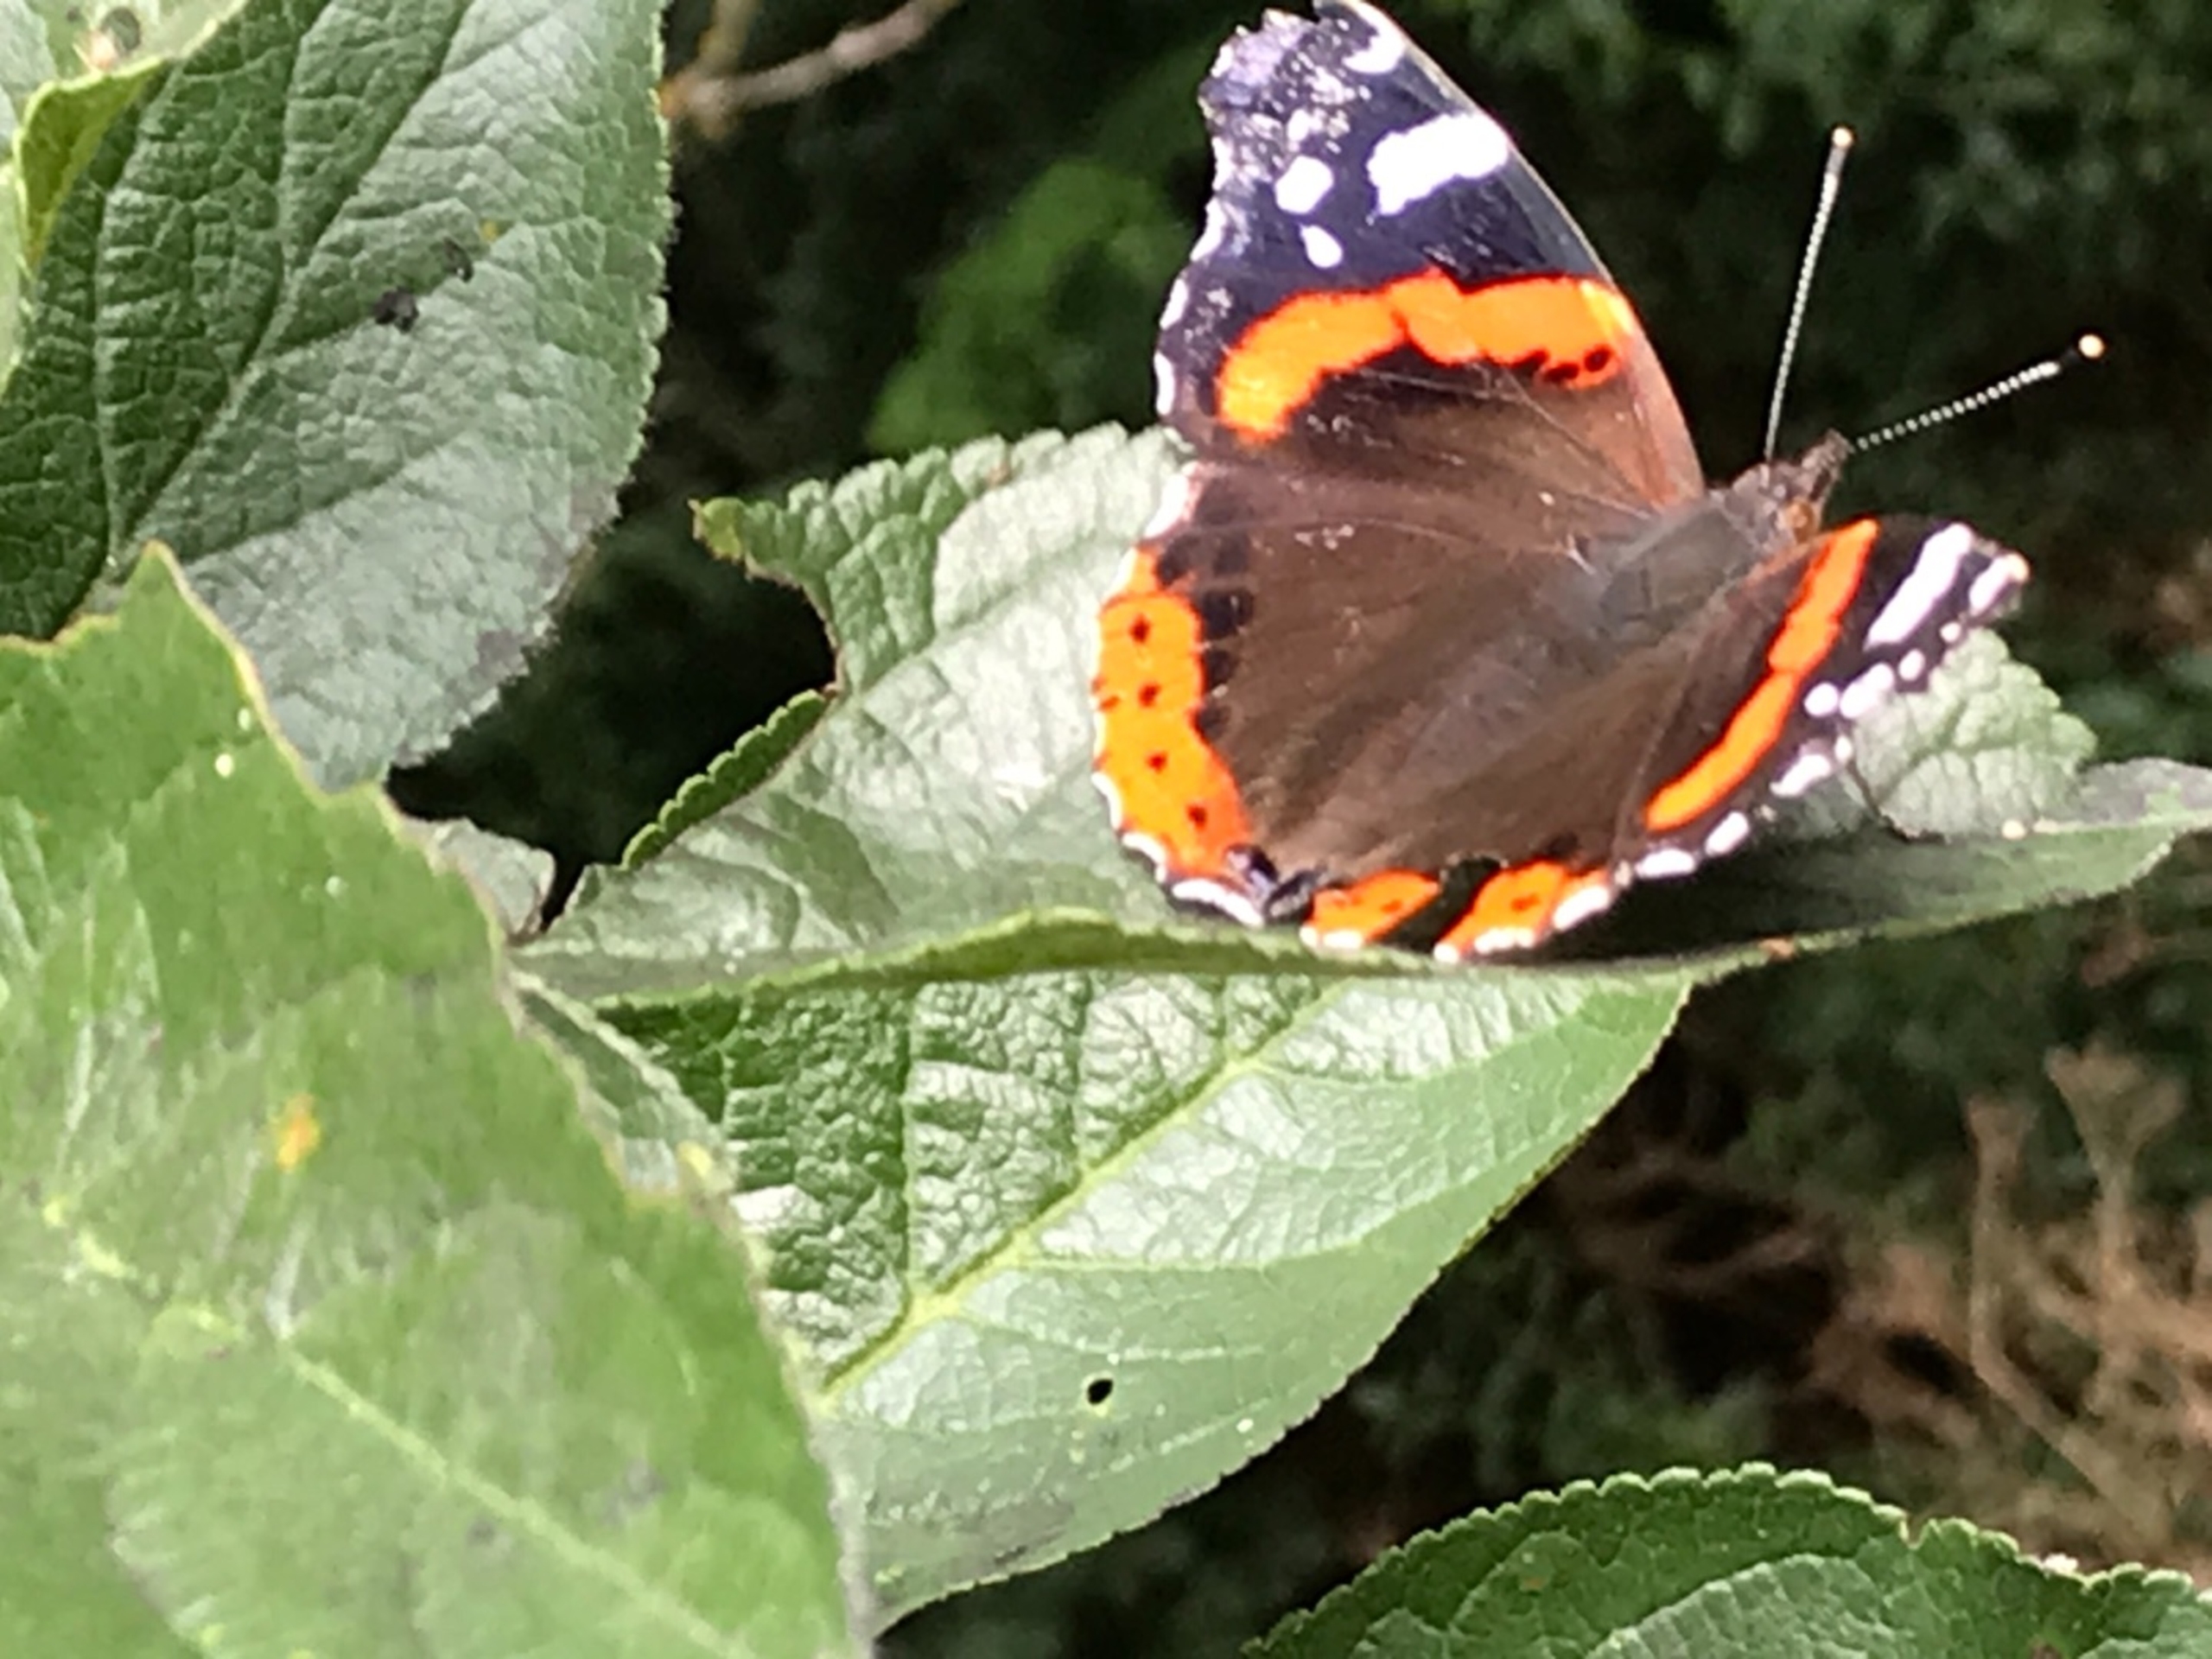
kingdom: Animalia
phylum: Arthropoda
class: Insecta
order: Lepidoptera
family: Nymphalidae
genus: Vanessa
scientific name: Vanessa atalanta
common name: Admiral
